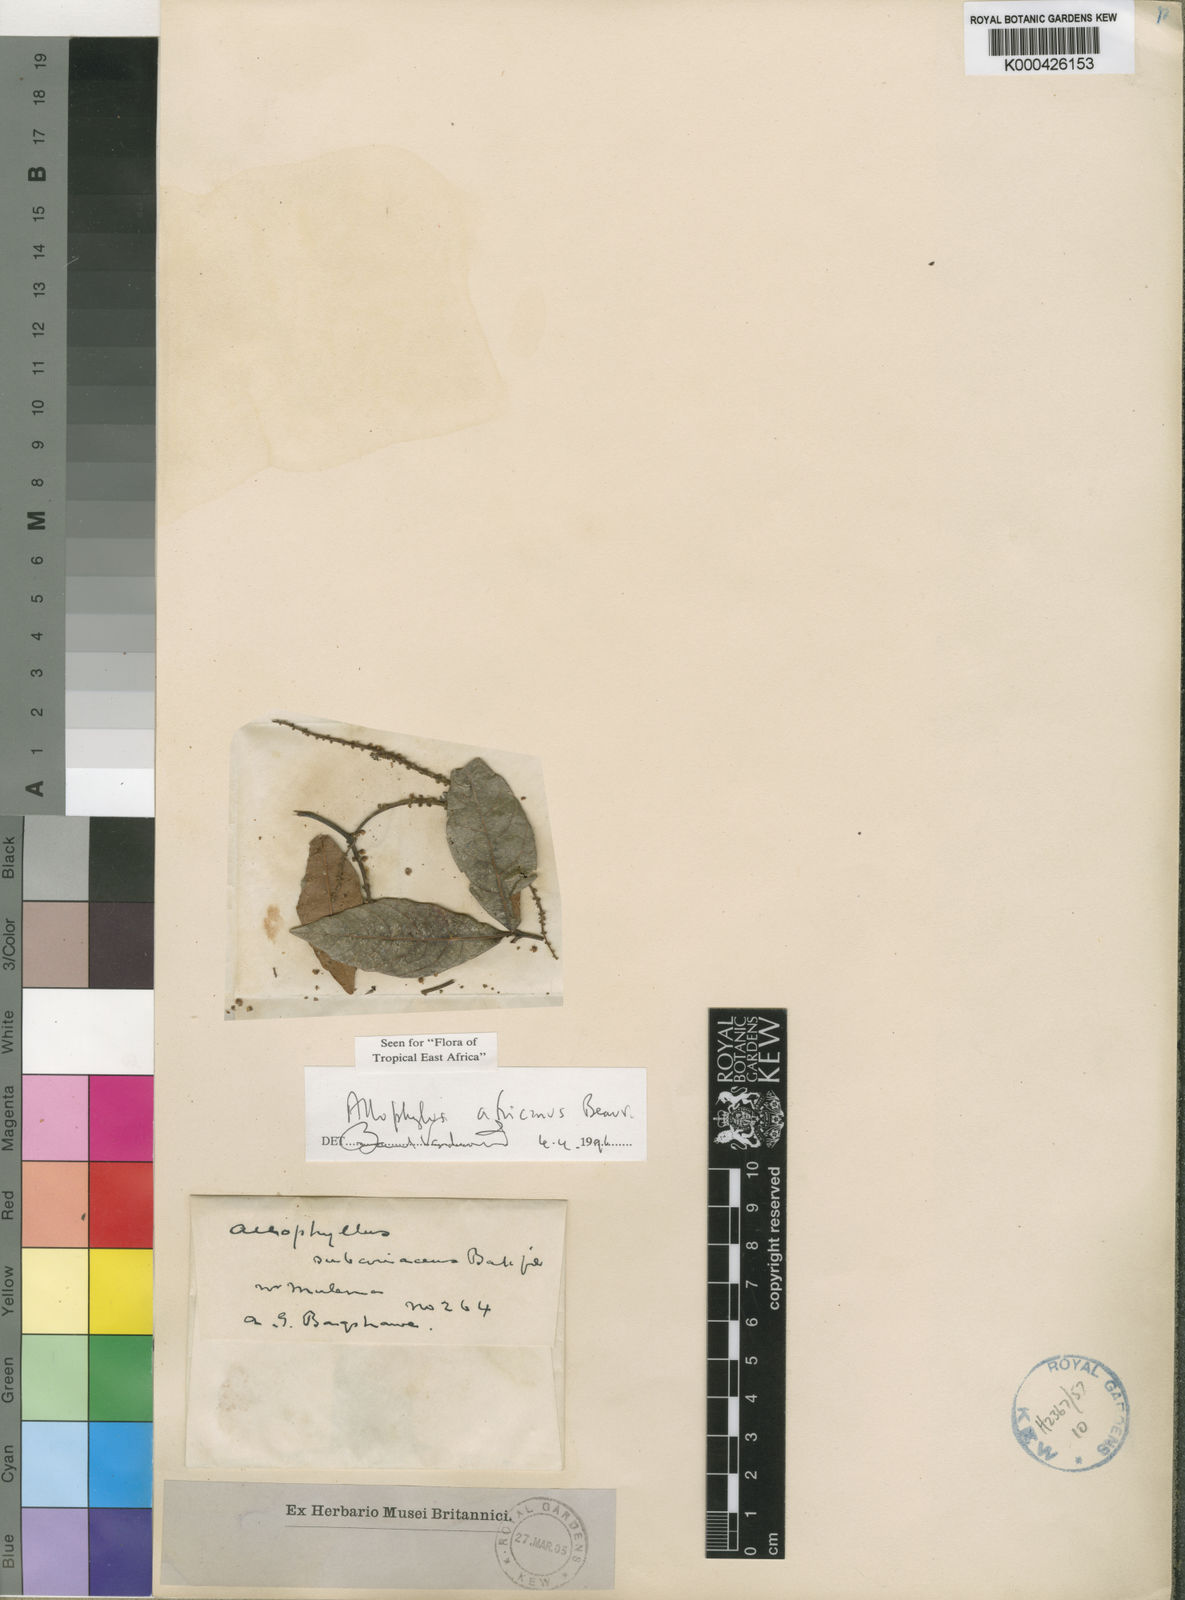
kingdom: Plantae
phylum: Tracheophyta
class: Magnoliopsida
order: Sapindales
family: Sapindaceae
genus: Allophylus
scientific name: Allophylus africanus
